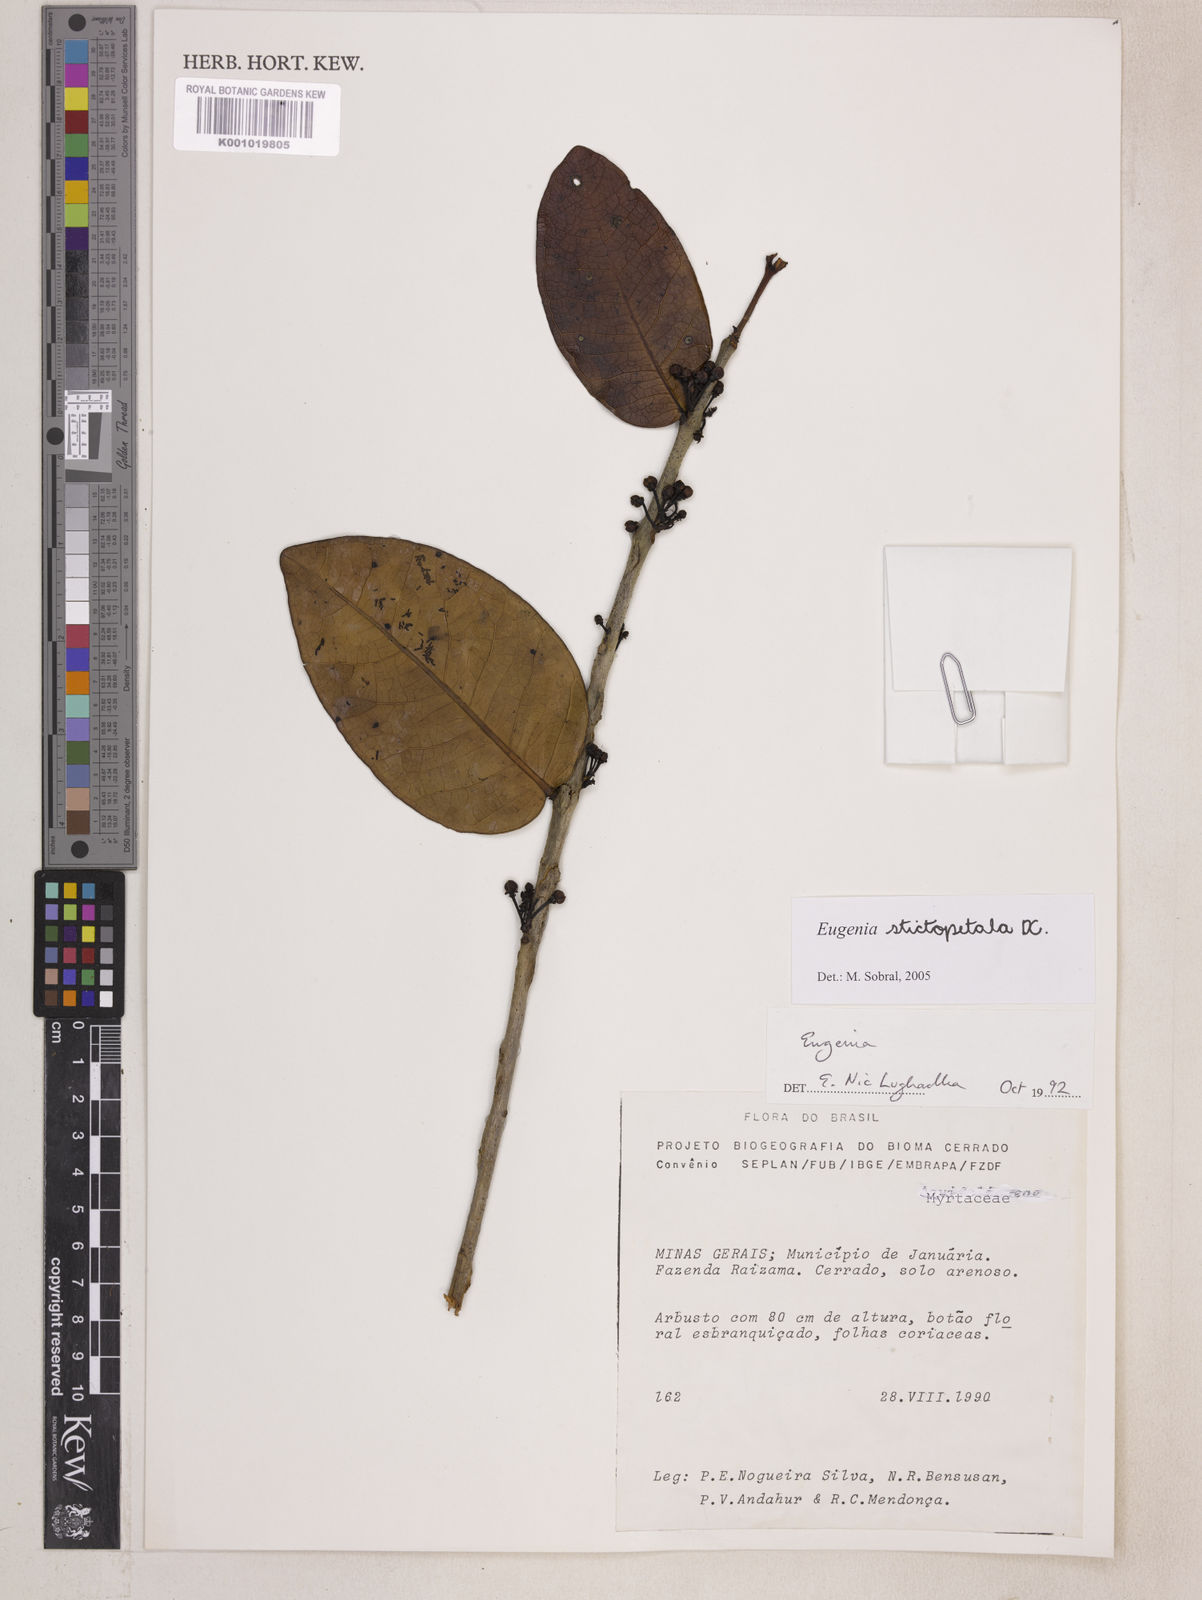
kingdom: Plantae
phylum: Tracheophyta
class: Magnoliopsida
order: Myrtales
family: Myrtaceae
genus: Eugenia
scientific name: Eugenia stictopetala
